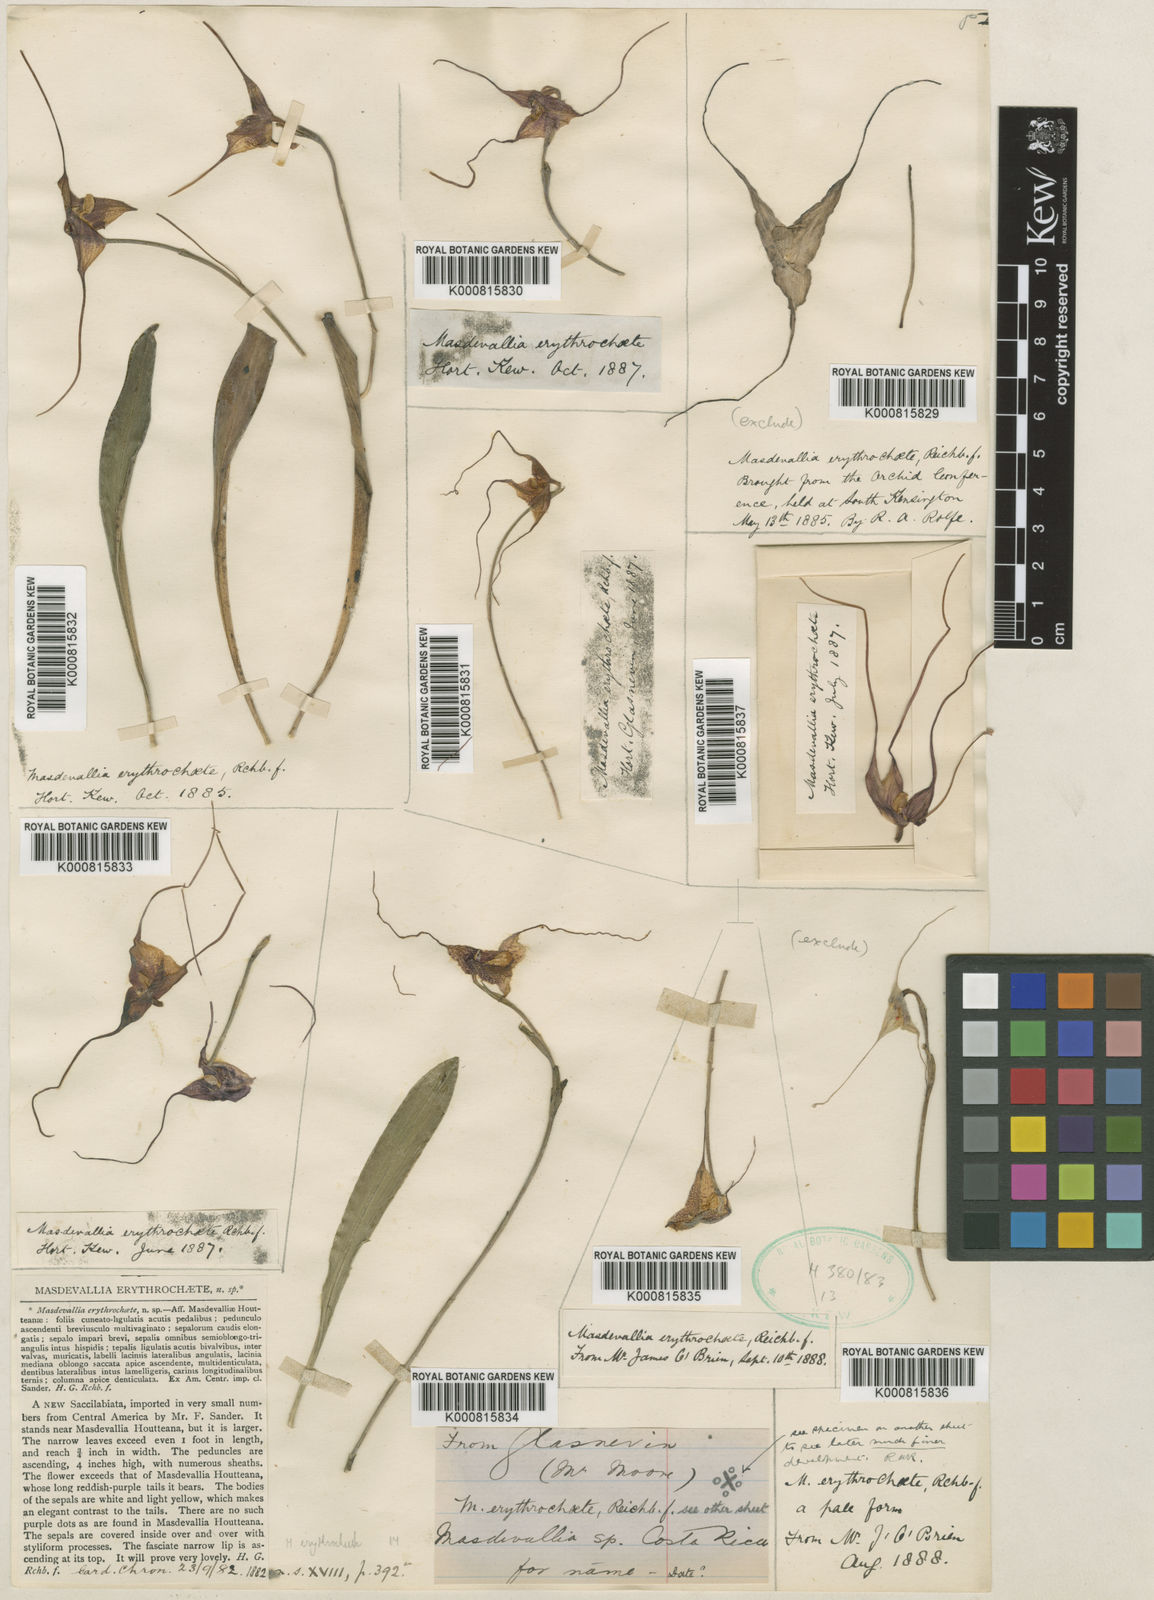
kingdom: Plantae
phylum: Tracheophyta
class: Liliopsida
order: Asparagales
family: Orchidaceae
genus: Dracula
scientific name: Dracula erythrochaete
